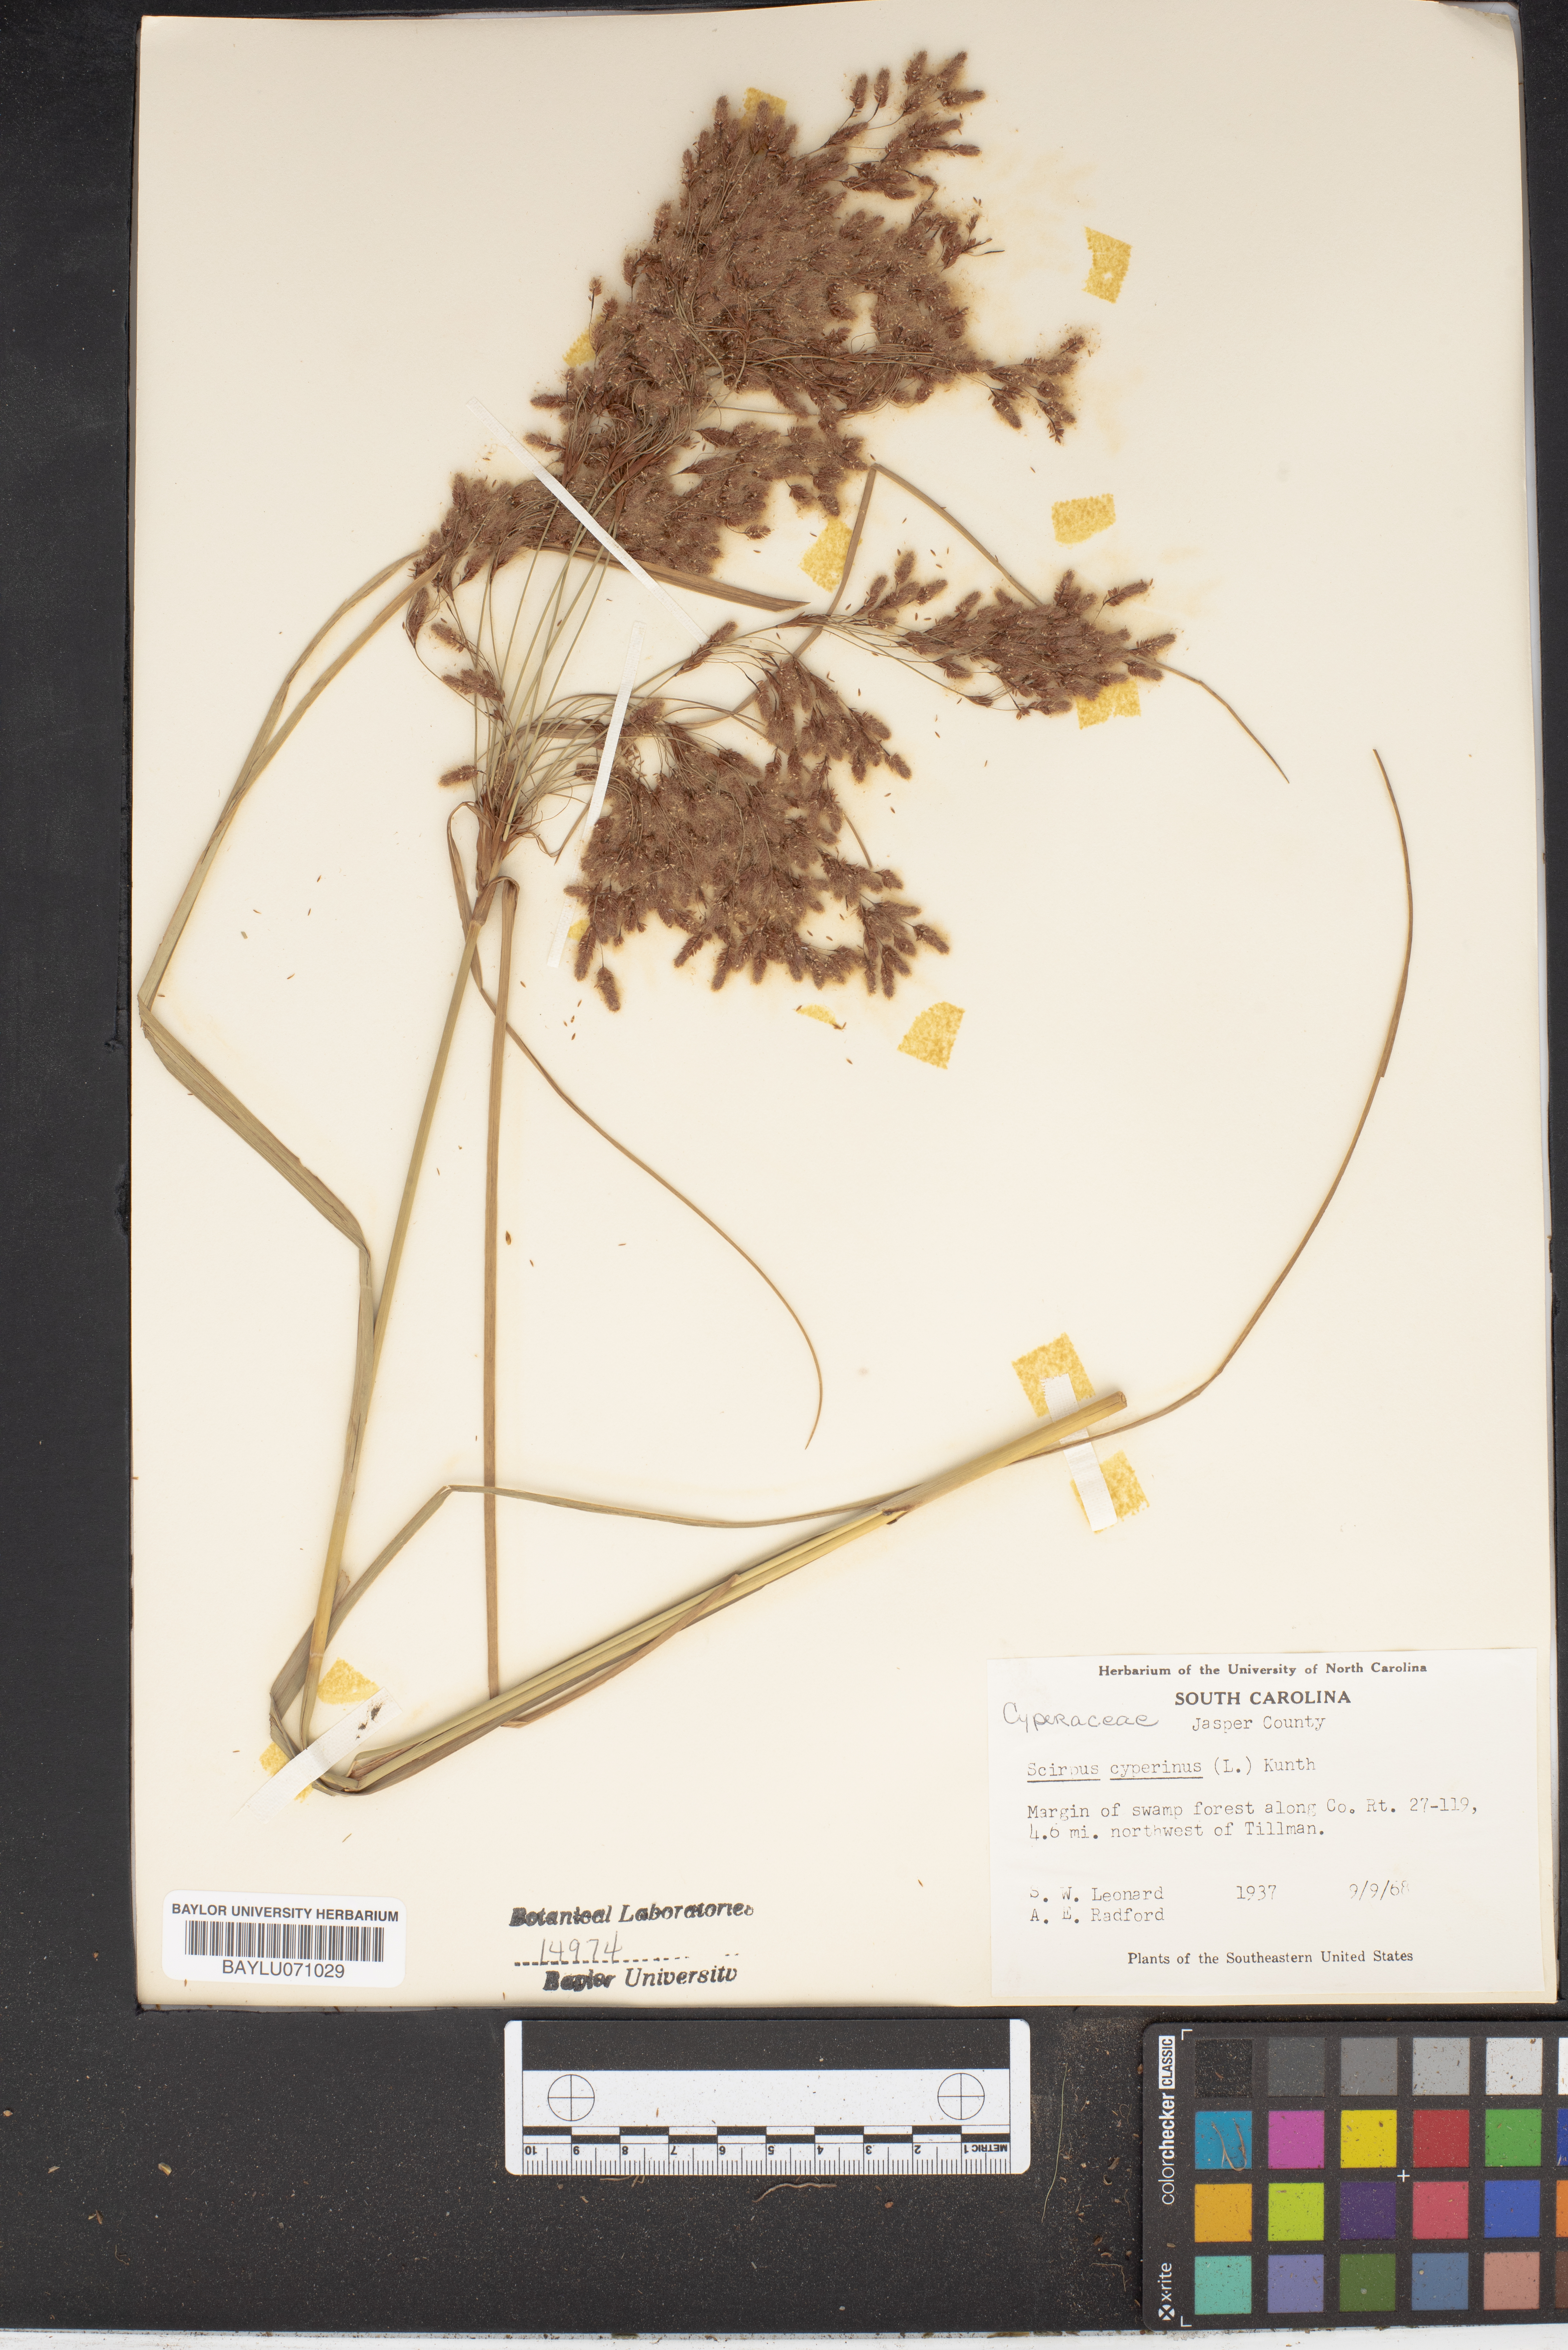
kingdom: Plantae
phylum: Tracheophyta
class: Liliopsida
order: Poales
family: Cyperaceae
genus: Scirpus
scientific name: Scirpus cyperinus
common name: Black-sheathed bulrush
